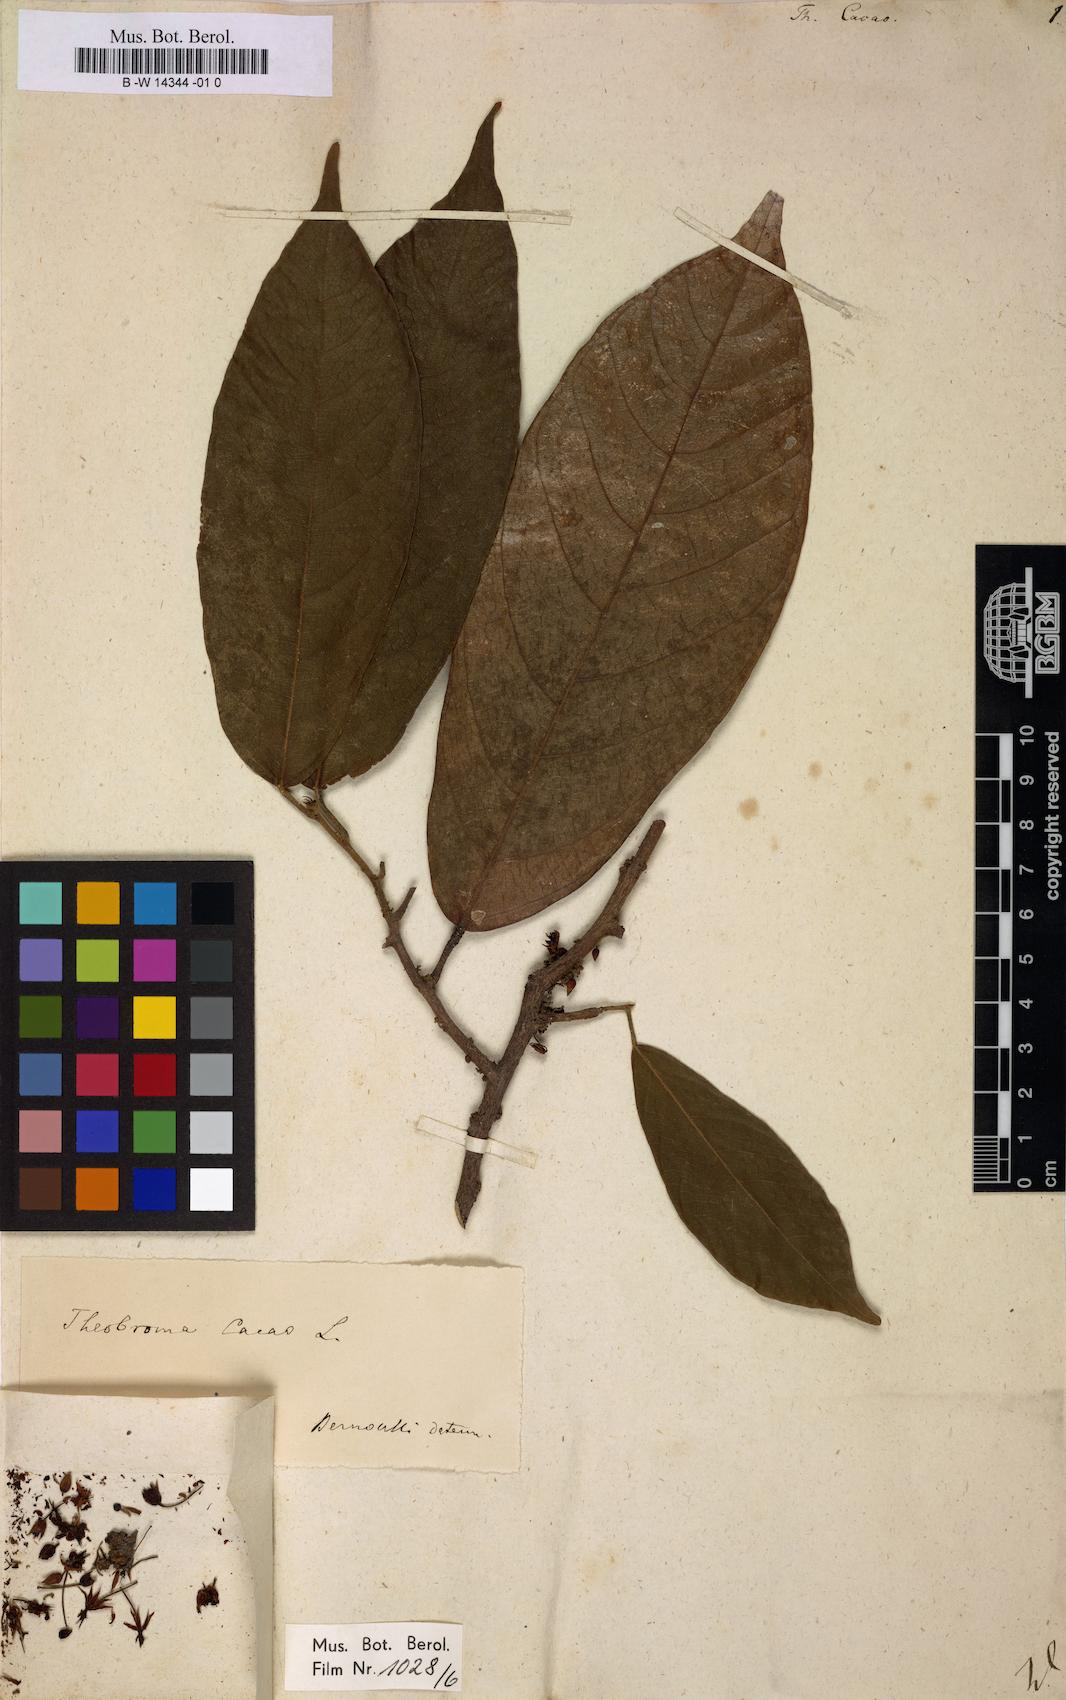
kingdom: Plantae
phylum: Tracheophyta
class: Magnoliopsida
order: Malvales
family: Malvaceae
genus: Theobroma
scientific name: Theobroma cacao
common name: Cocoa
